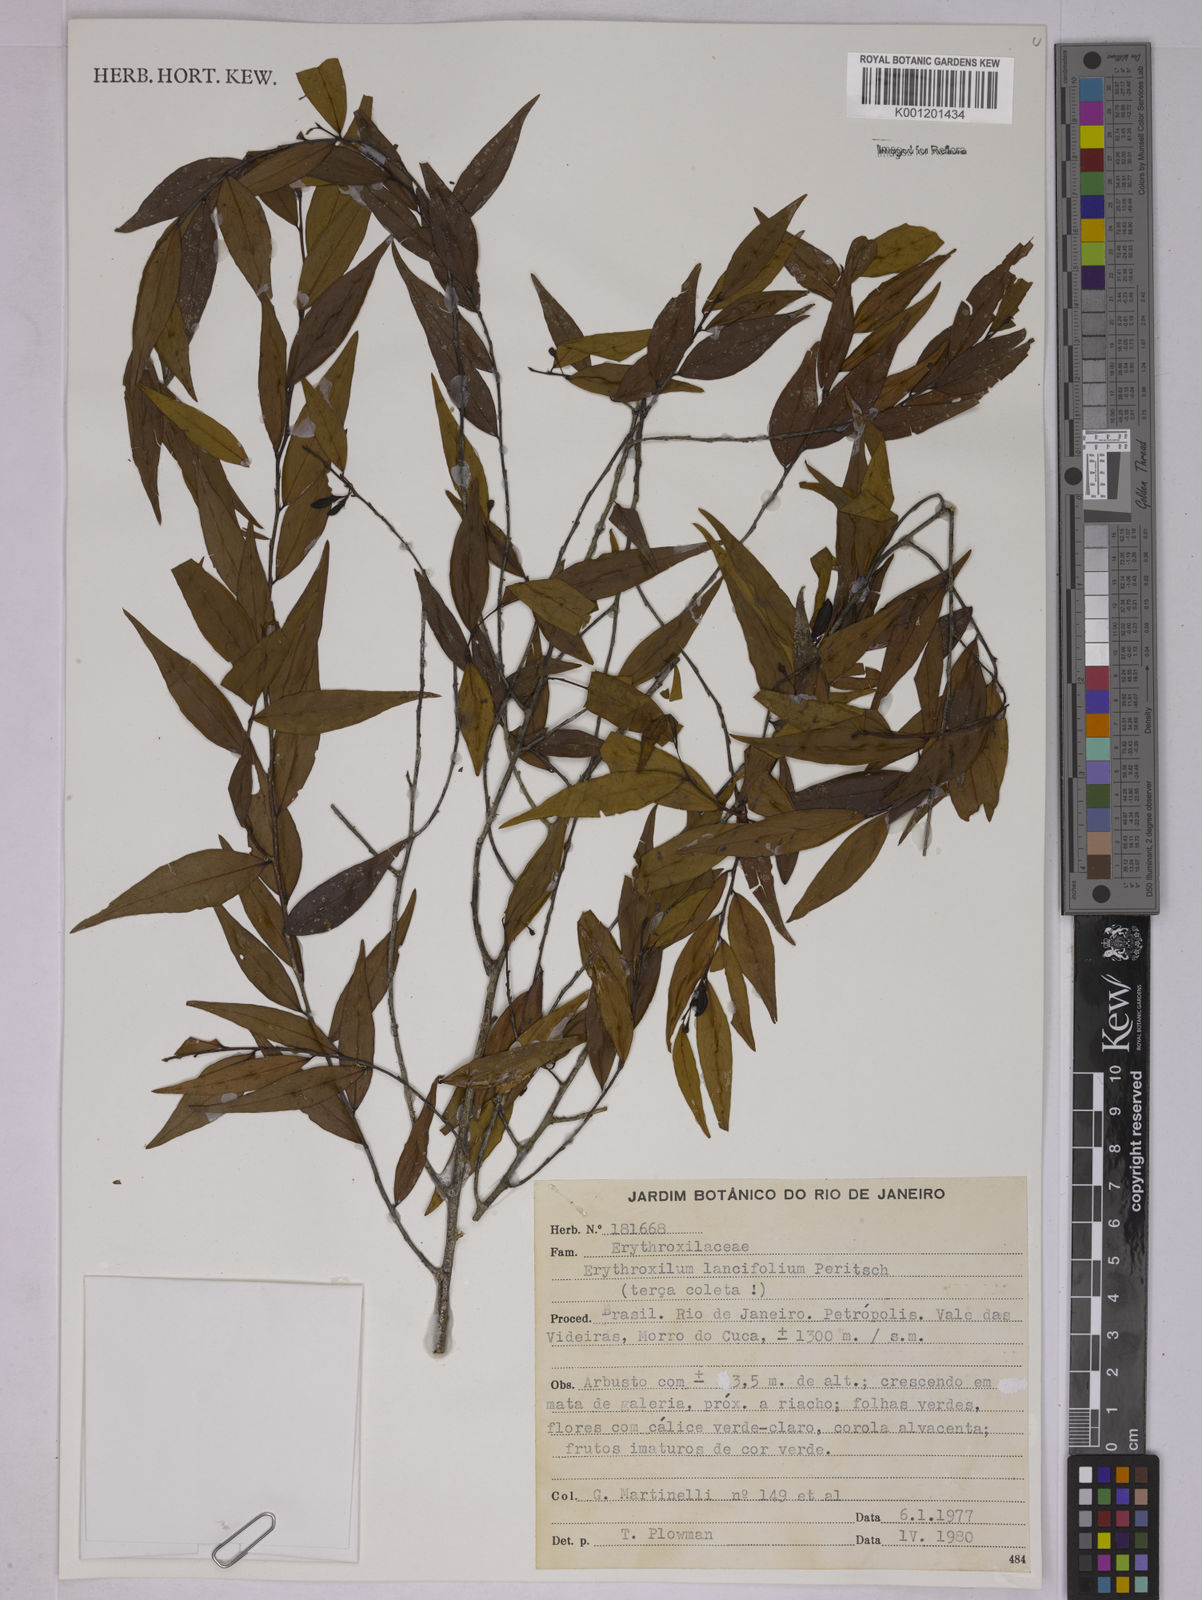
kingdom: Plantae
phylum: Tracheophyta
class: Magnoliopsida
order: Malpighiales
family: Erythroxylaceae
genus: Erythroxylum
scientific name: Erythroxylum lancifolium
